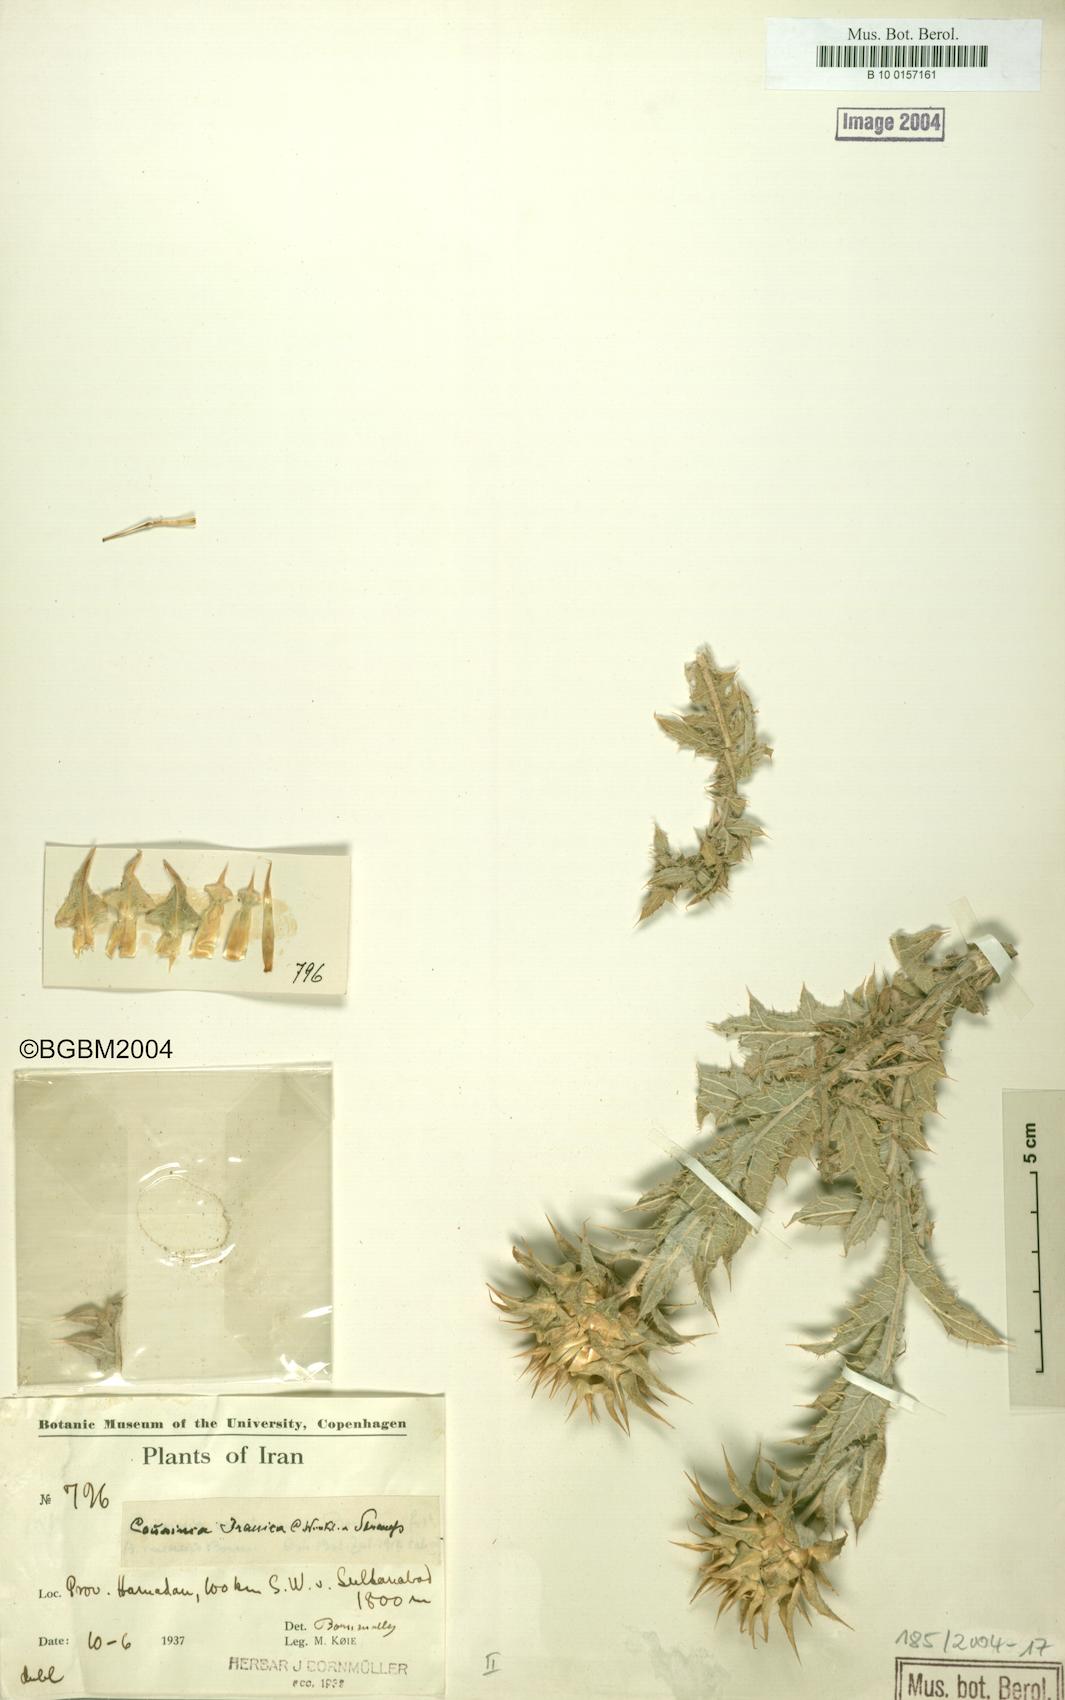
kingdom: Plantae
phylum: Tracheophyta
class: Magnoliopsida
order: Asterales
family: Asteraceae
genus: Cousinia
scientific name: Cousinia sagittata
